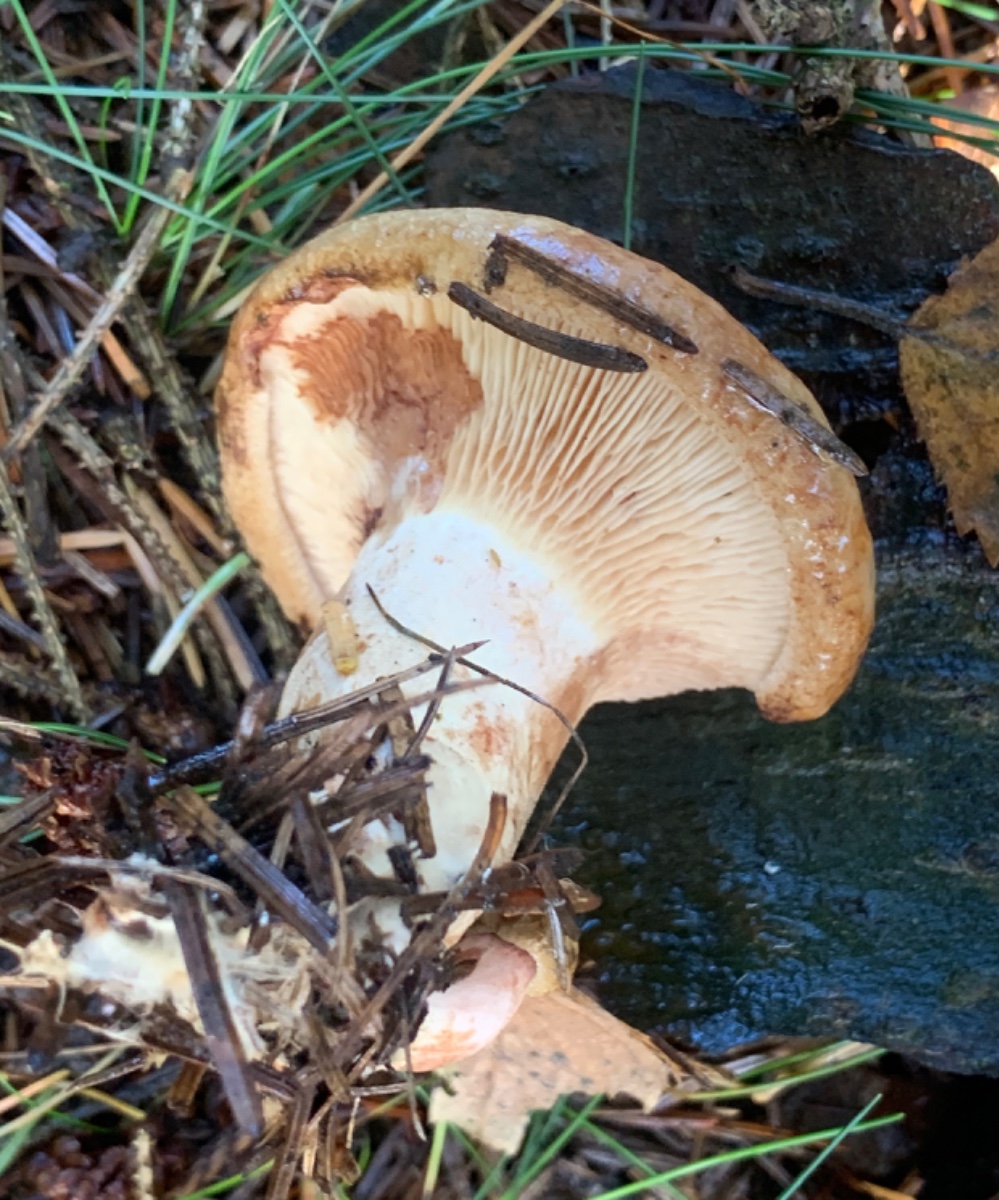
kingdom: Fungi
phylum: Basidiomycota
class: Agaricomycetes
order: Boletales
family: Paxillaceae
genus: Paxillus
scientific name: Paxillus involutus
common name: almindelig netbladhat
